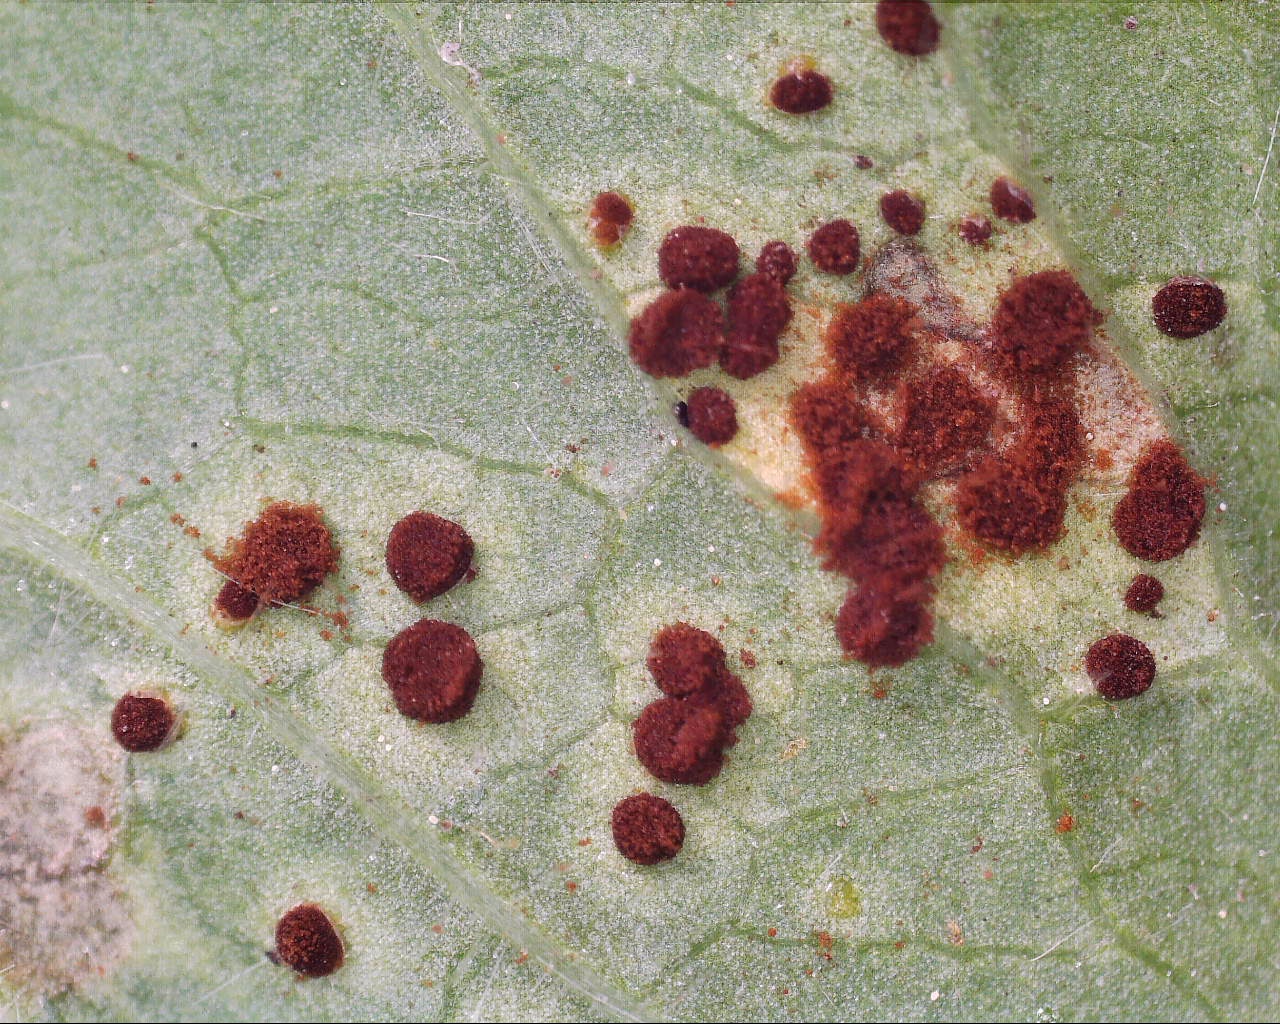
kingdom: Fungi
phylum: Basidiomycota
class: Pucciniomycetes
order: Pucciniales
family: Pucciniaceae
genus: Puccinia
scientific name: Puccinia pulverulenta
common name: dueurt-tvecellerust
